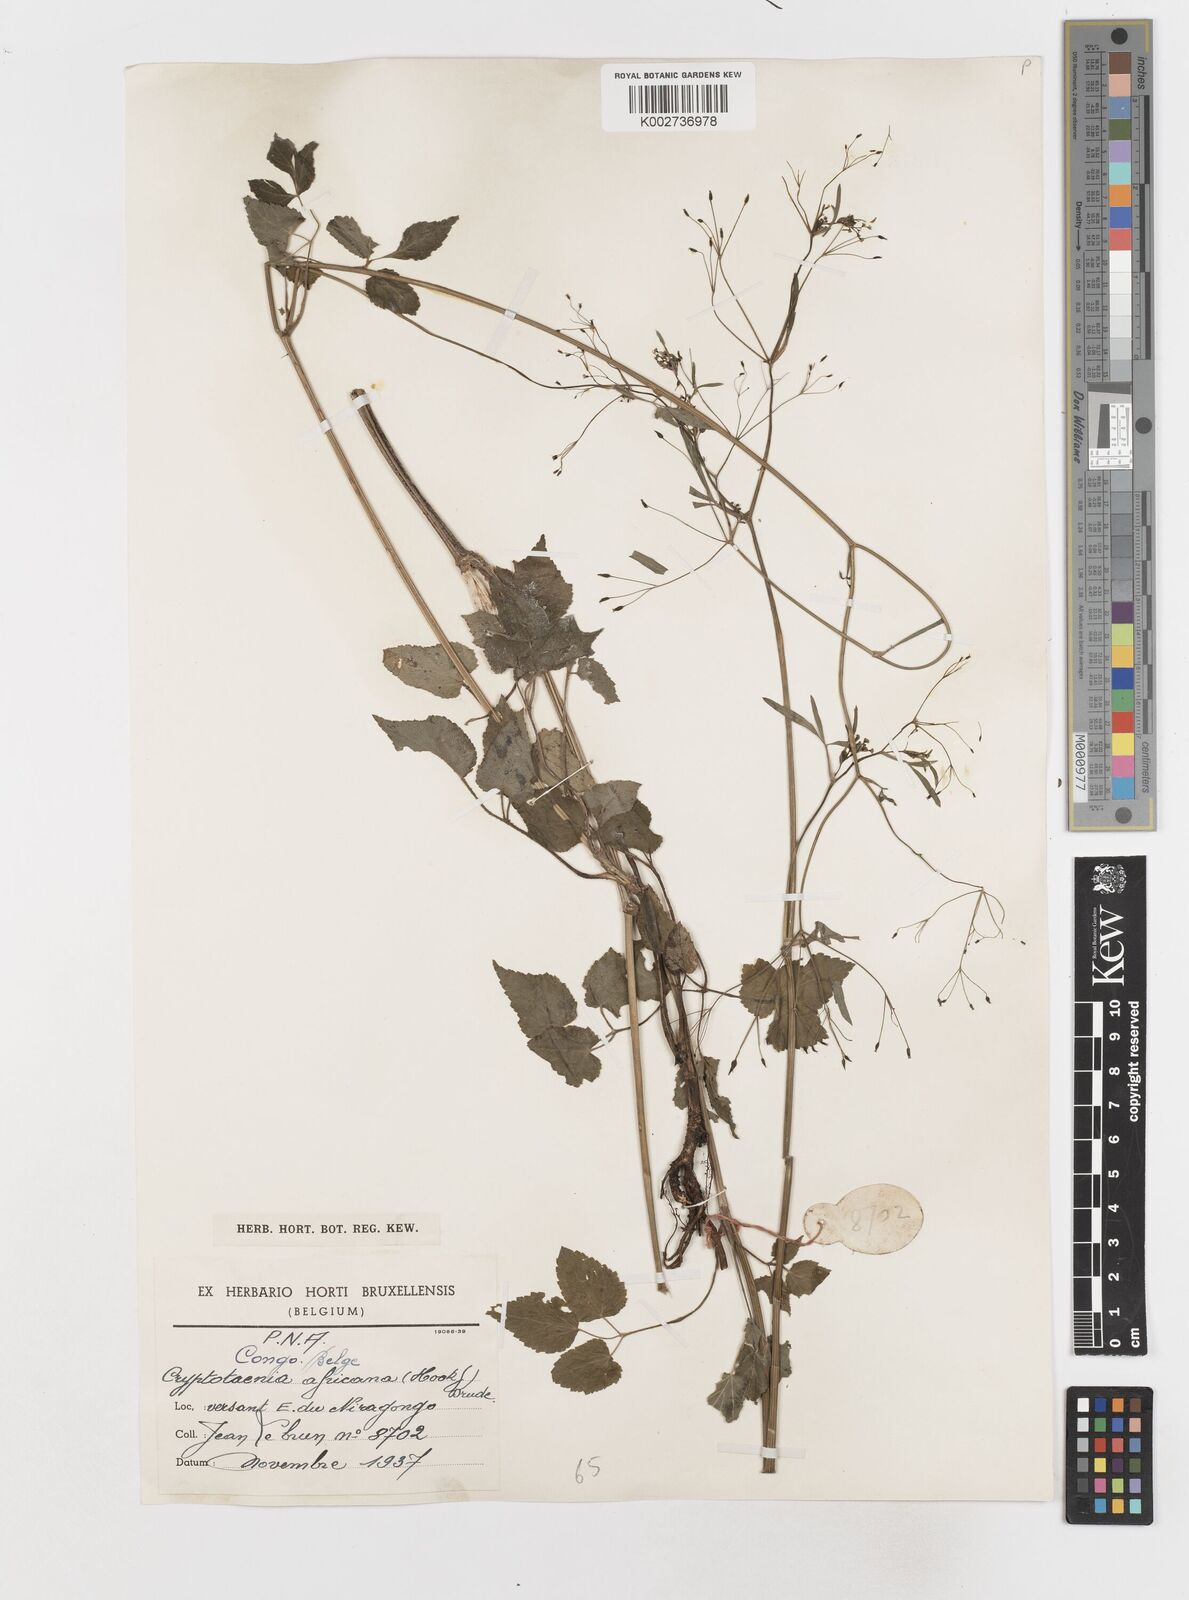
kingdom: Plantae
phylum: Tracheophyta
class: Magnoliopsida
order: Apiales
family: Apiaceae
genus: Cryptotaenia
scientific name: Cryptotaenia africana
